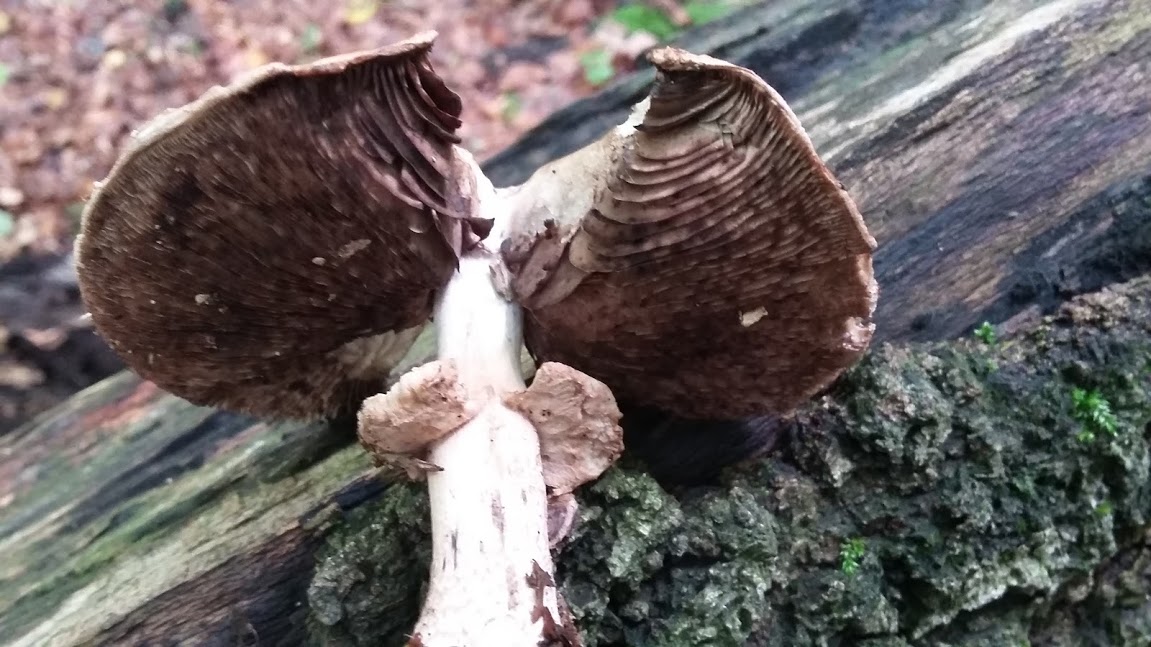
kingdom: Fungi
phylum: Basidiomycota
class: Agaricomycetes
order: Agaricales
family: Agaricaceae
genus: Agaricus
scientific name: Agaricus
